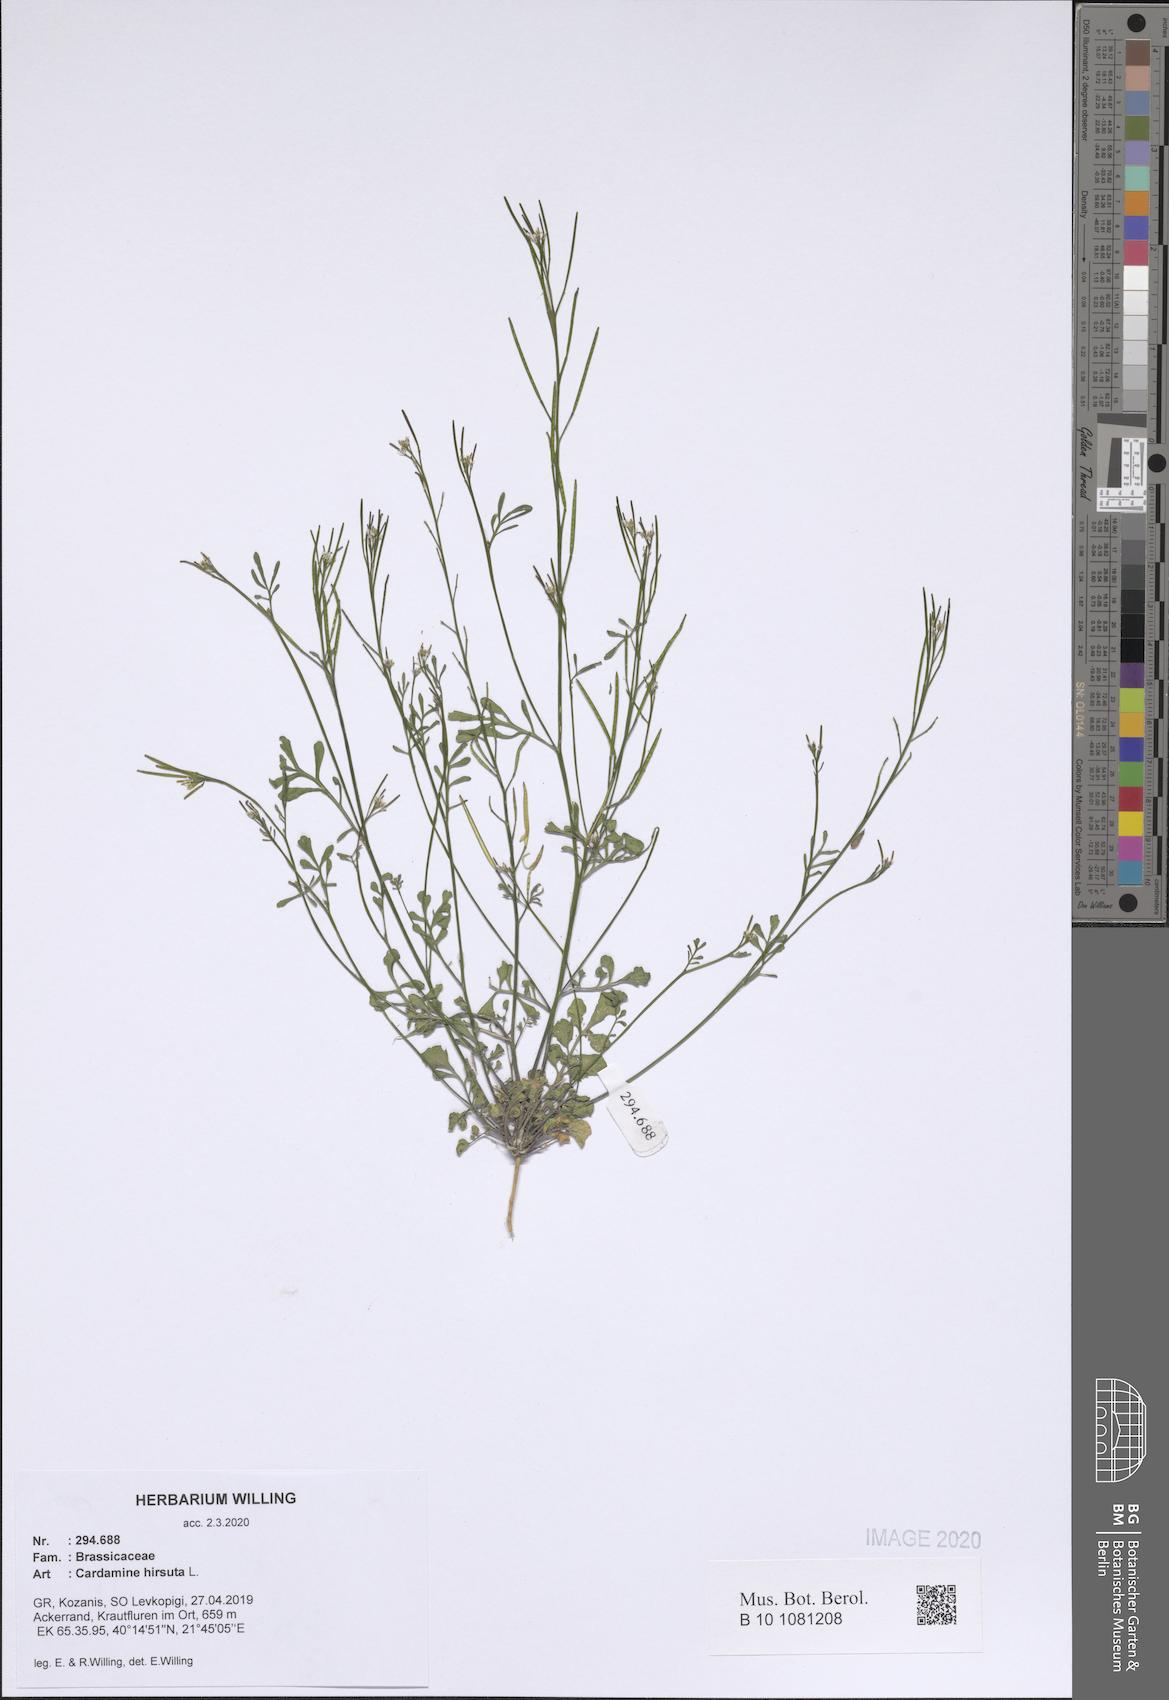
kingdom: Plantae
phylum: Tracheophyta
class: Magnoliopsida
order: Brassicales
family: Brassicaceae
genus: Cardamine
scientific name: Cardamine hirsuta
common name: Hairy bittercress
